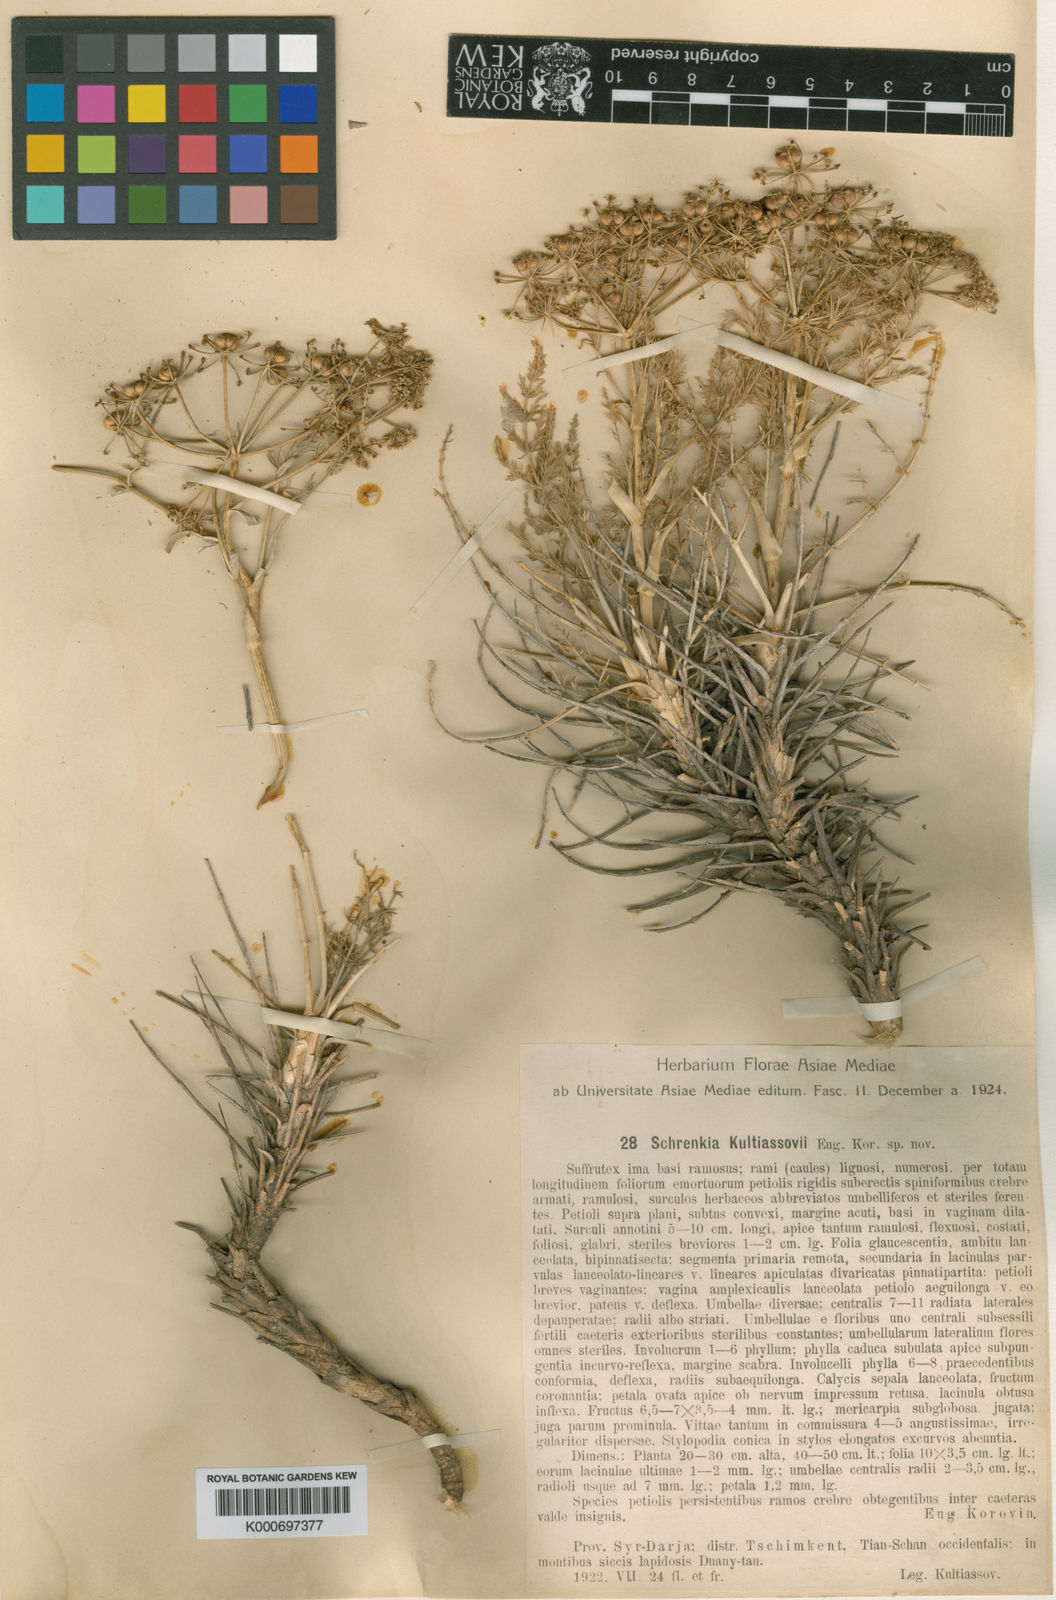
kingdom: Plantae
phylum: Tracheophyta
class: Magnoliopsida
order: Apiales
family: Apiaceae
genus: Schrenkia
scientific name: Schrenkia kultiassovii
